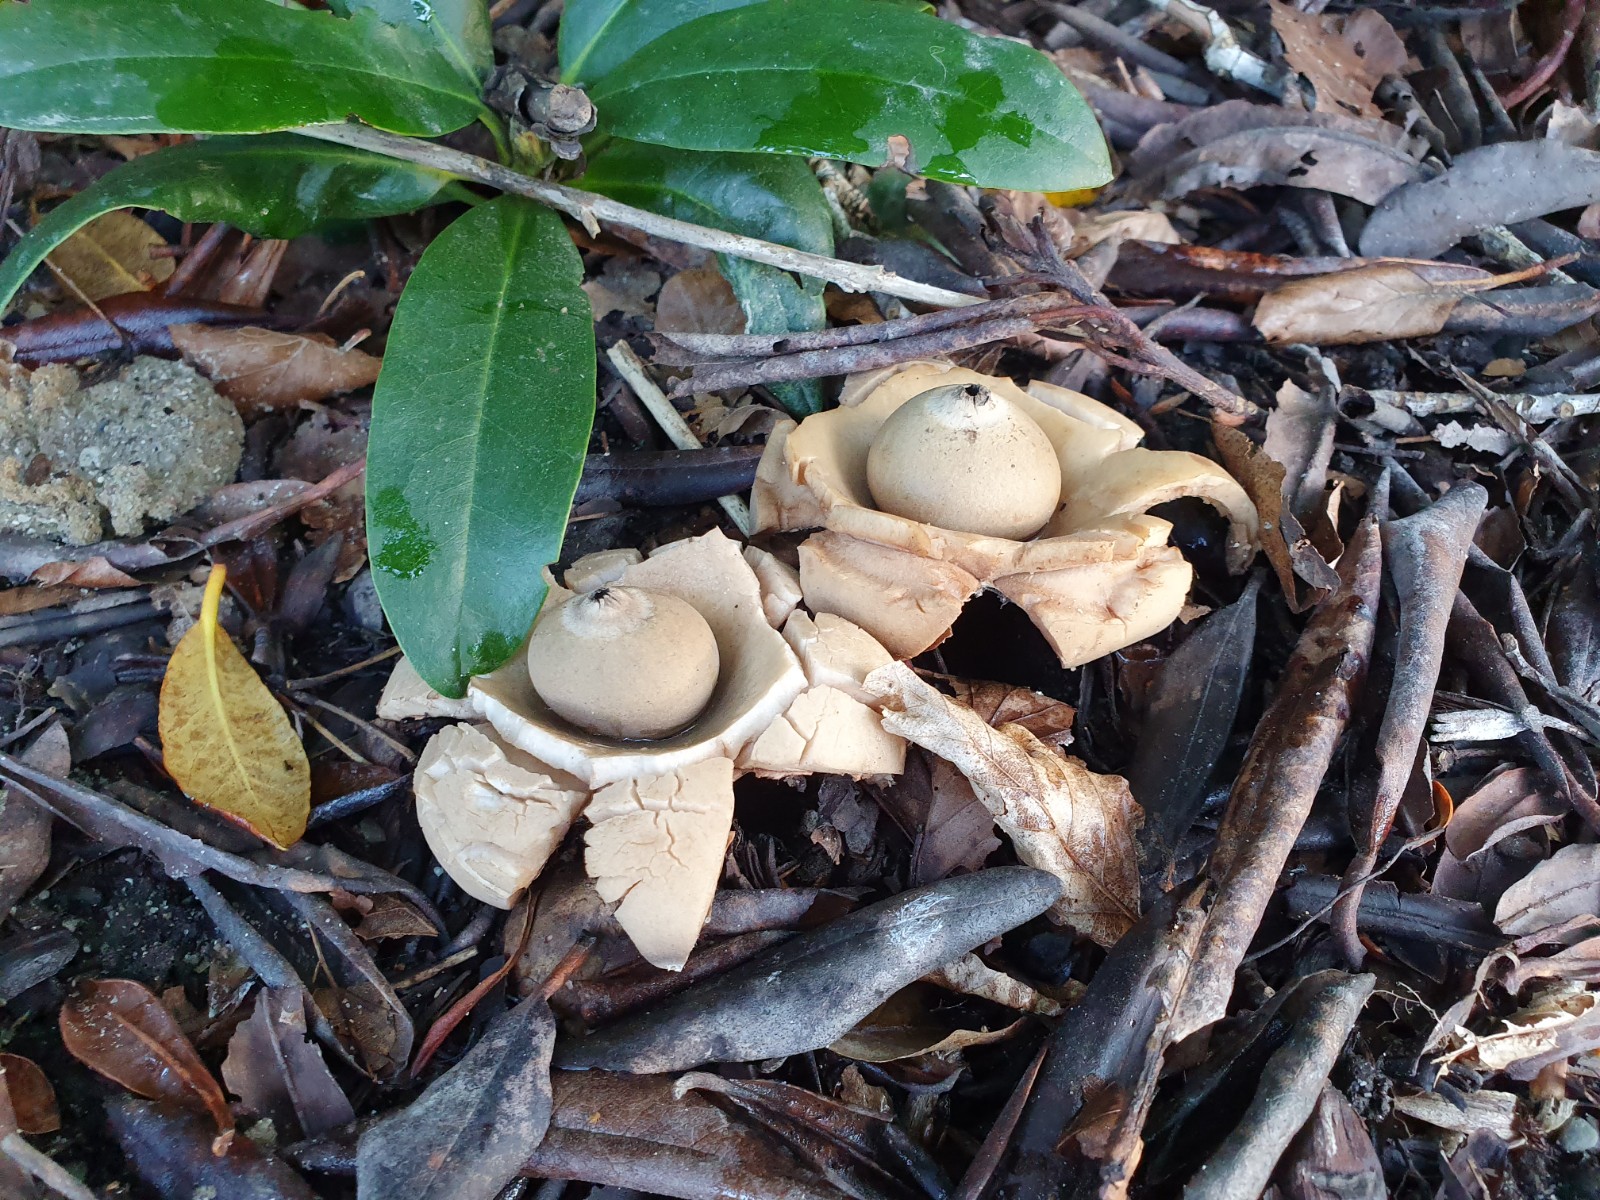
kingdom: Fungi
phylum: Basidiomycota
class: Agaricomycetes
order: Geastrales
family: Geastraceae
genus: Geastrum
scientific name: Geastrum michelianum
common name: kødet stjernebold
